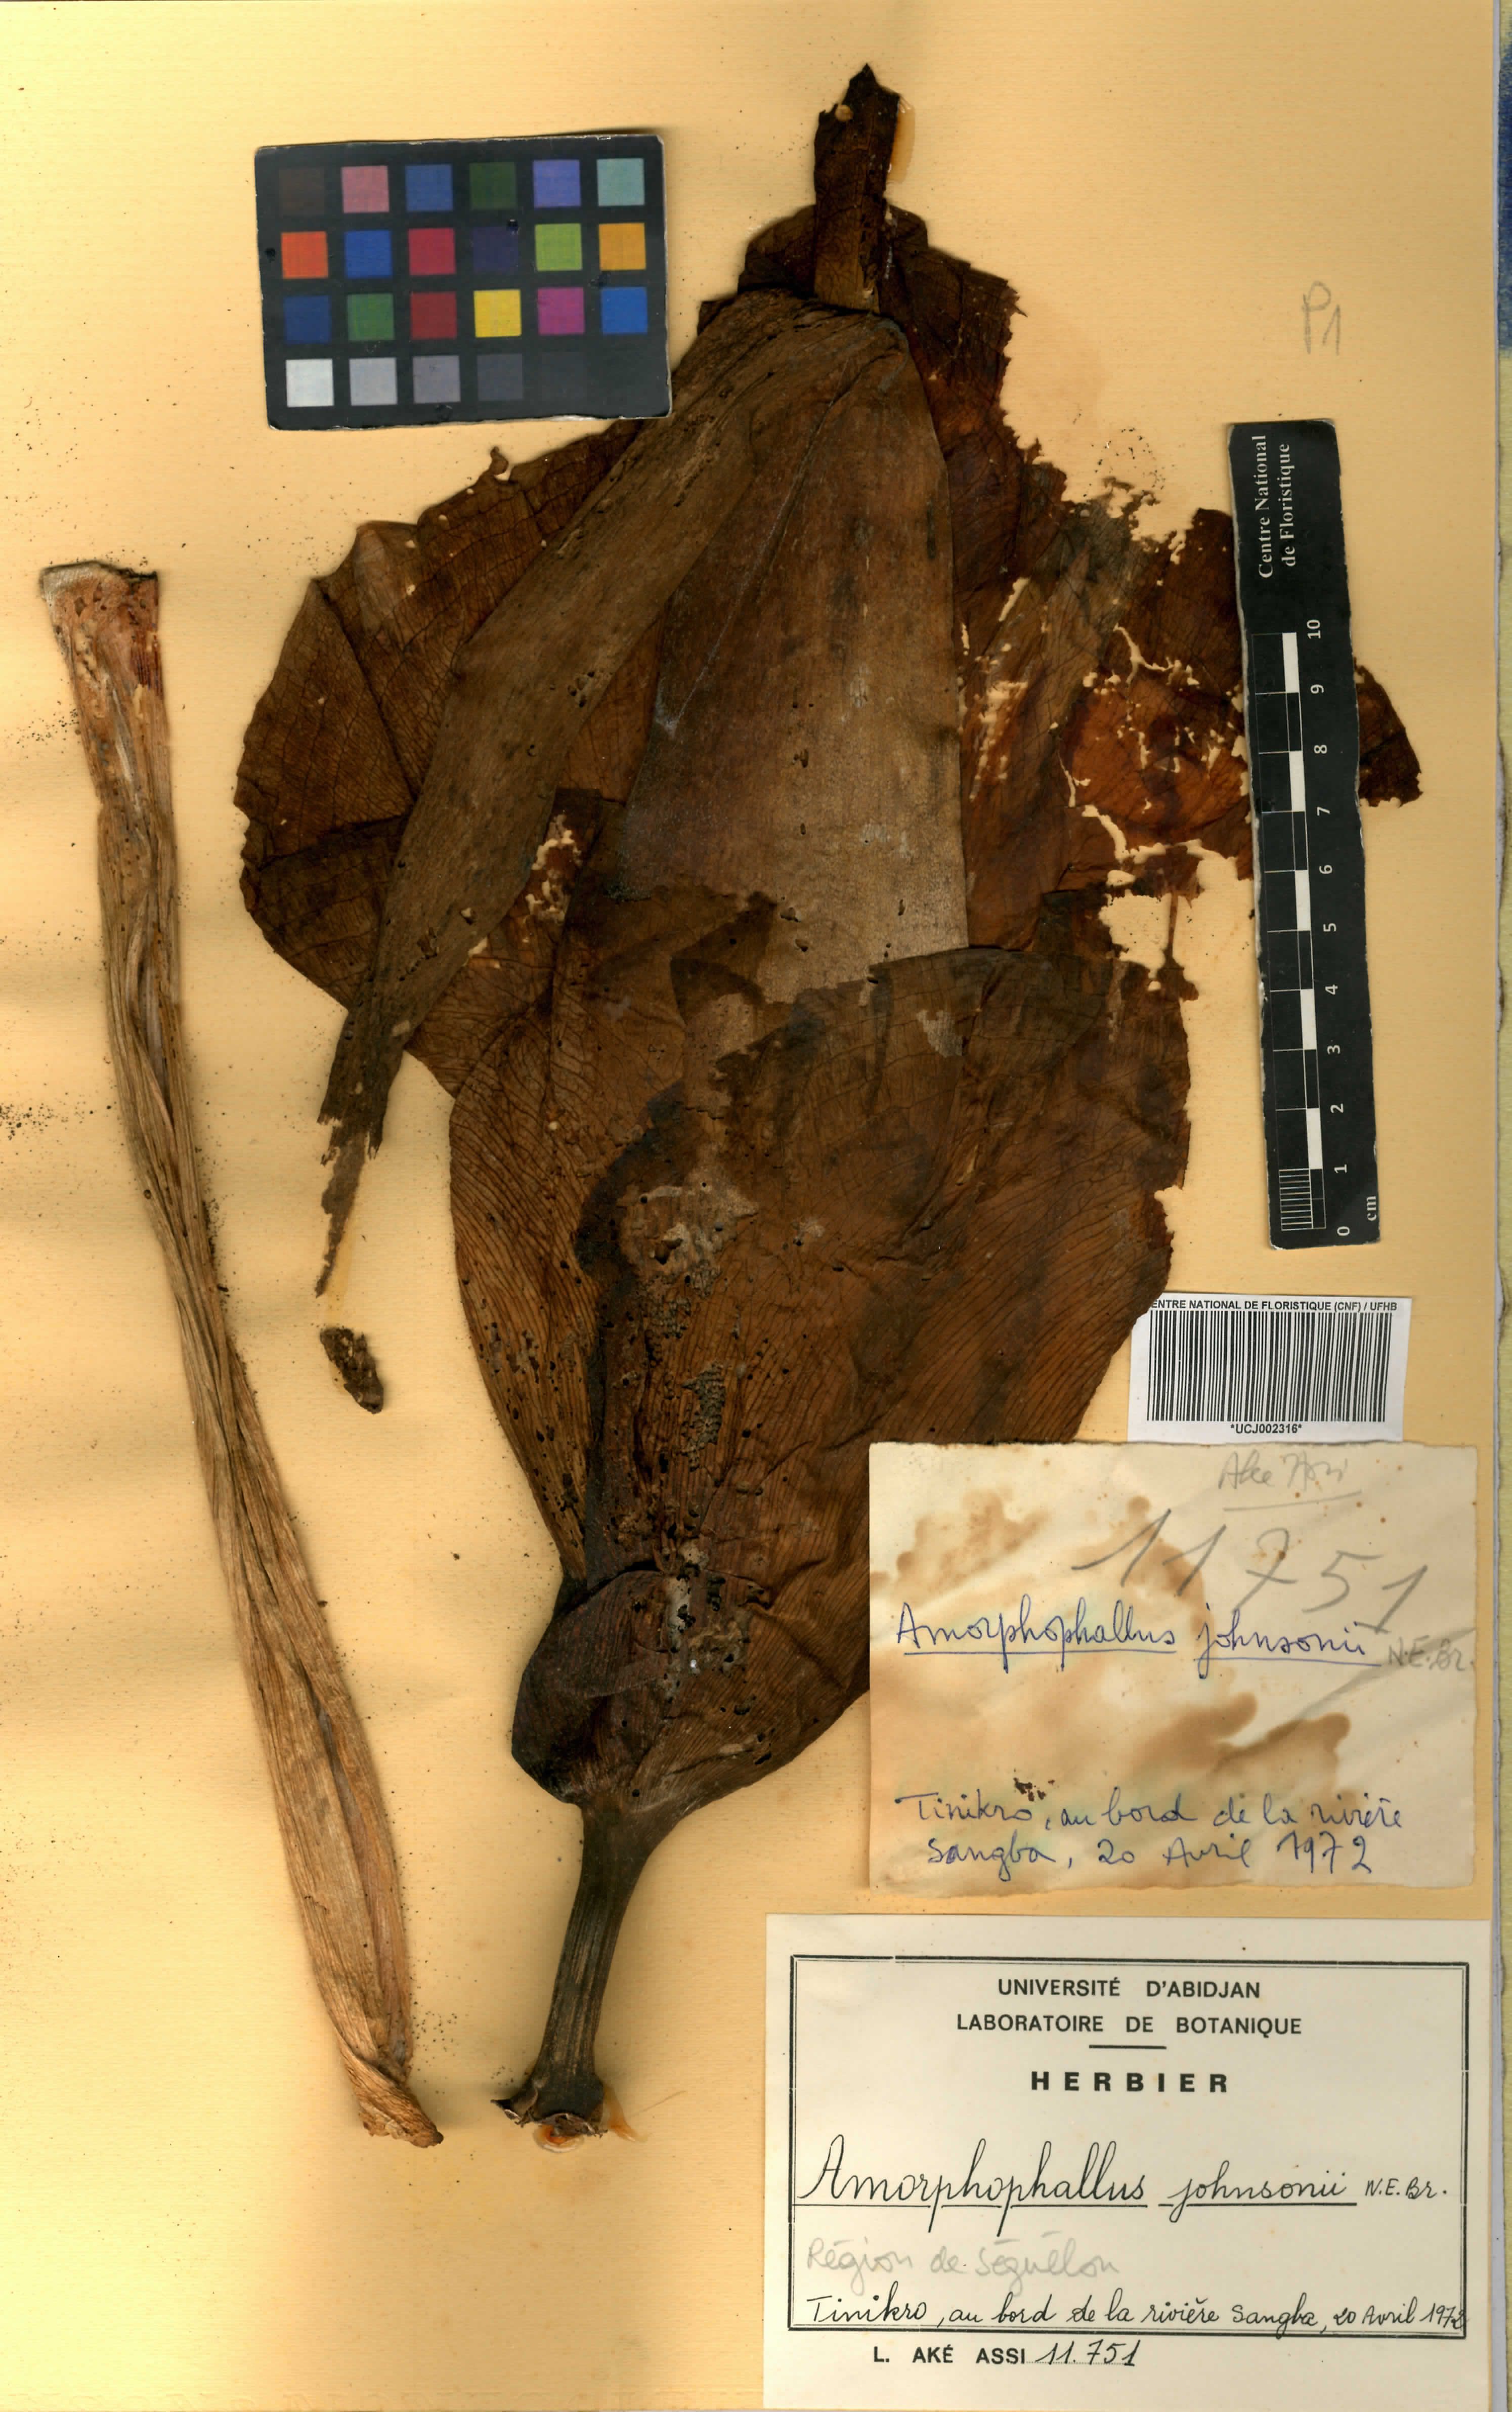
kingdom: Plantae
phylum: Tracheophyta
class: Liliopsida
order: Alismatales
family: Araceae
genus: Amorphophallus
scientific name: Amorphophallus johnsonii
